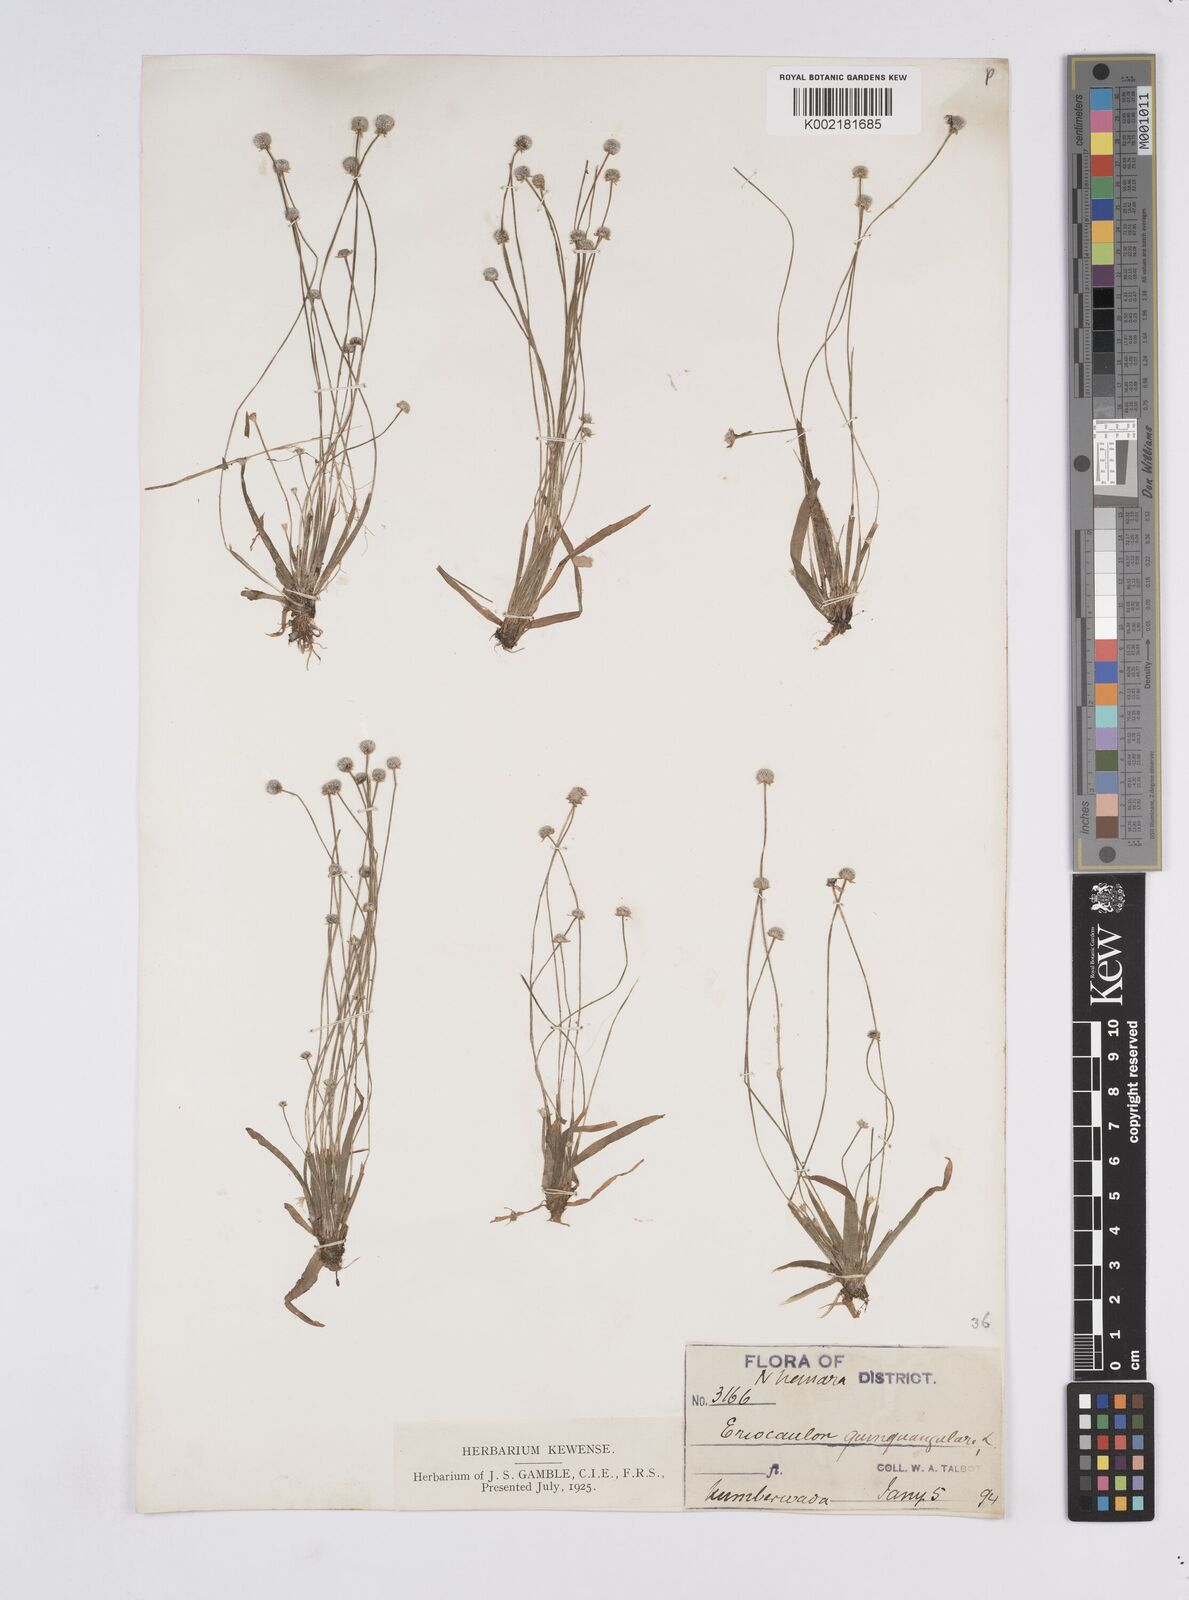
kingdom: Plantae
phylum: Tracheophyta
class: Liliopsida
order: Poales
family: Eriocaulaceae
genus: Eriocaulon
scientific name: Eriocaulon quinquangulare
